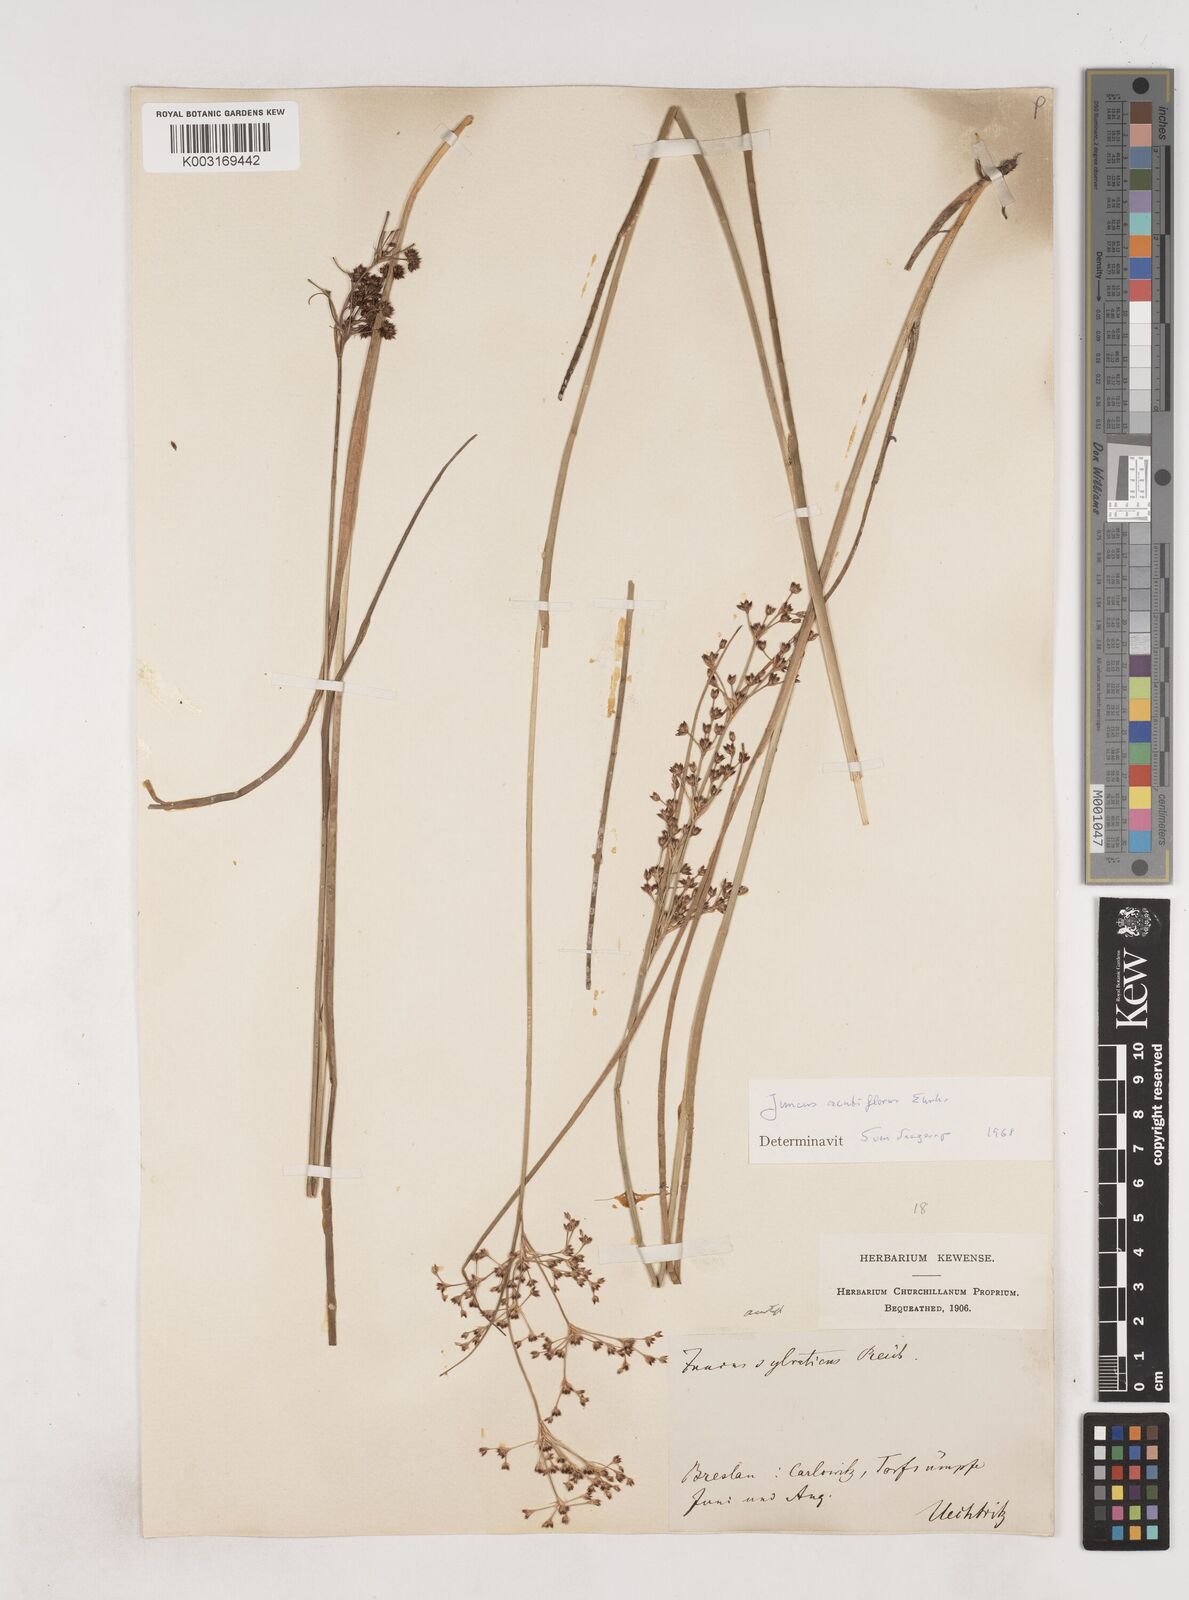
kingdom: Plantae
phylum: Tracheophyta
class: Liliopsida
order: Poales
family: Juncaceae
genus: Juncus
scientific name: Juncus acutiflorus
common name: Sharp-flowered rush
